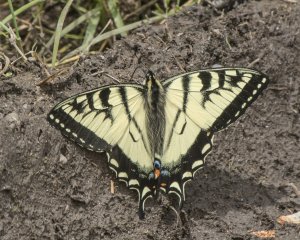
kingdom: Animalia
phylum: Arthropoda
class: Insecta
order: Lepidoptera
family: Papilionidae
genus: Pterourus
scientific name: Pterourus canadensis
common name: Canadian Tiger Swallowtail
